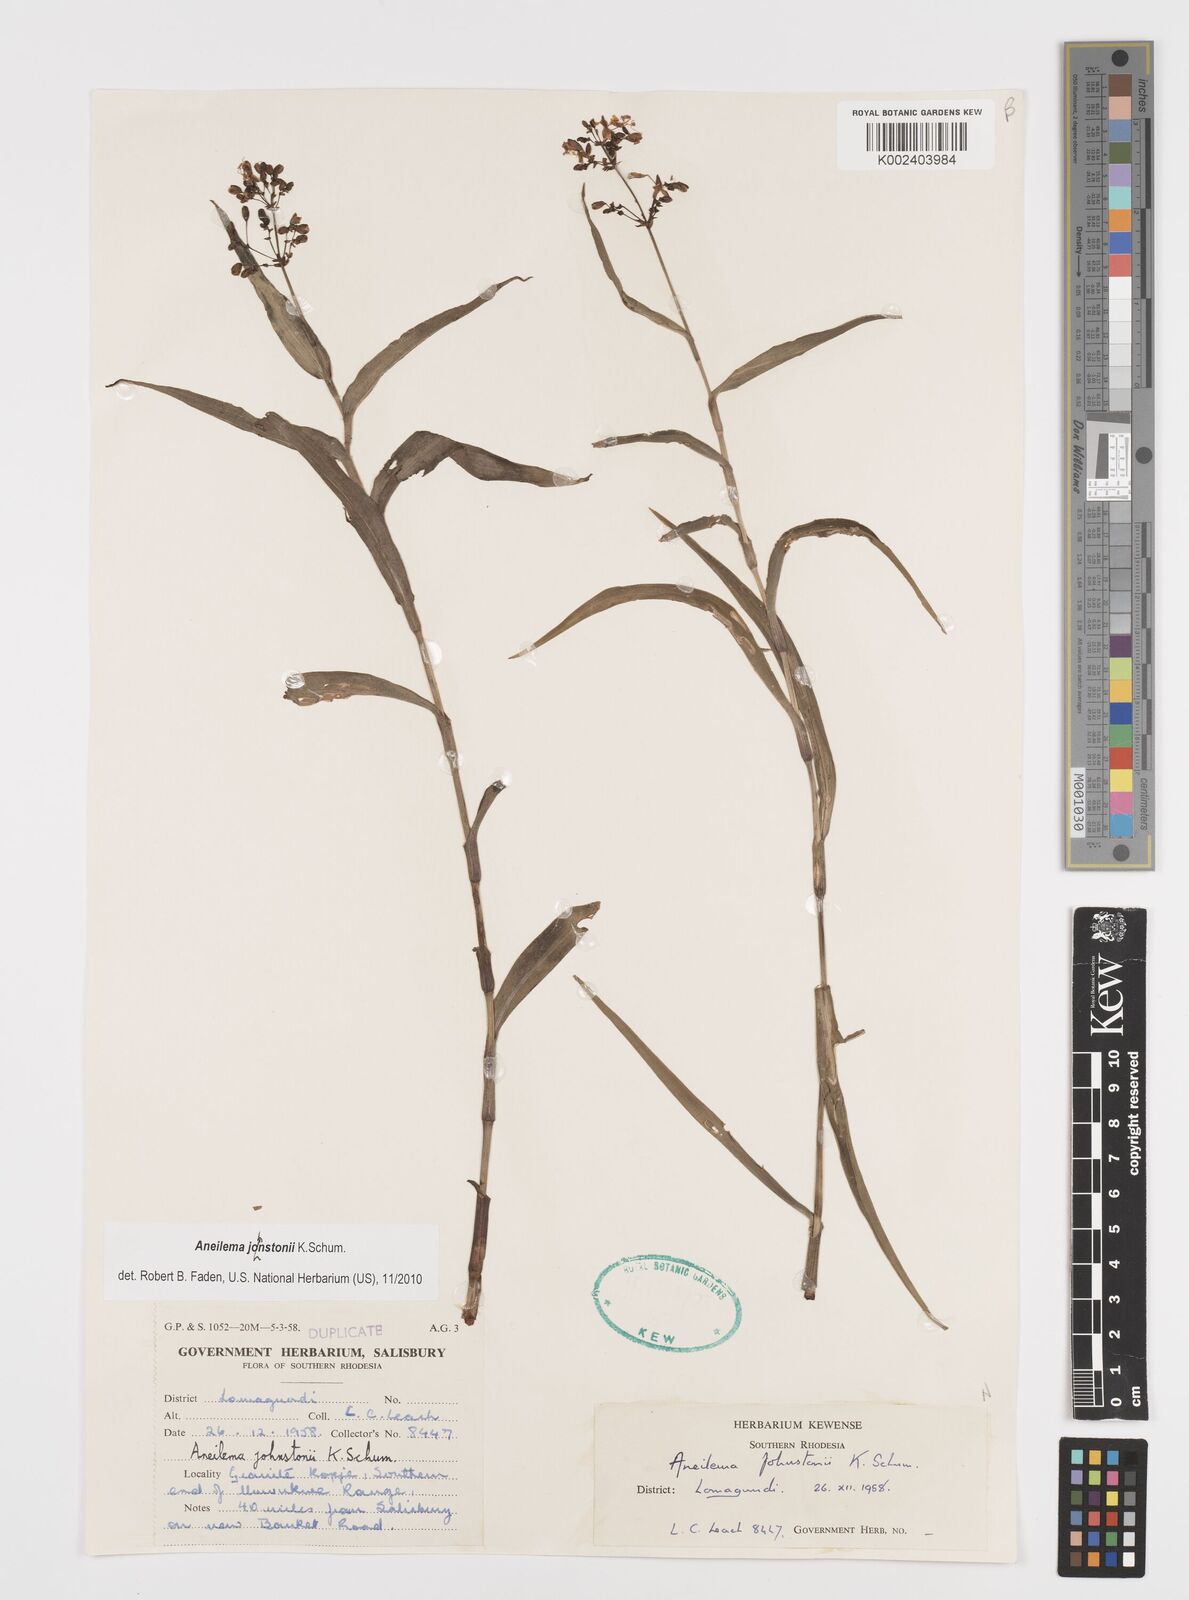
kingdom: Plantae
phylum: Tracheophyta
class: Liliopsida
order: Commelinales
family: Commelinaceae
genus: Aneilema
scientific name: Aneilema johnstonii
